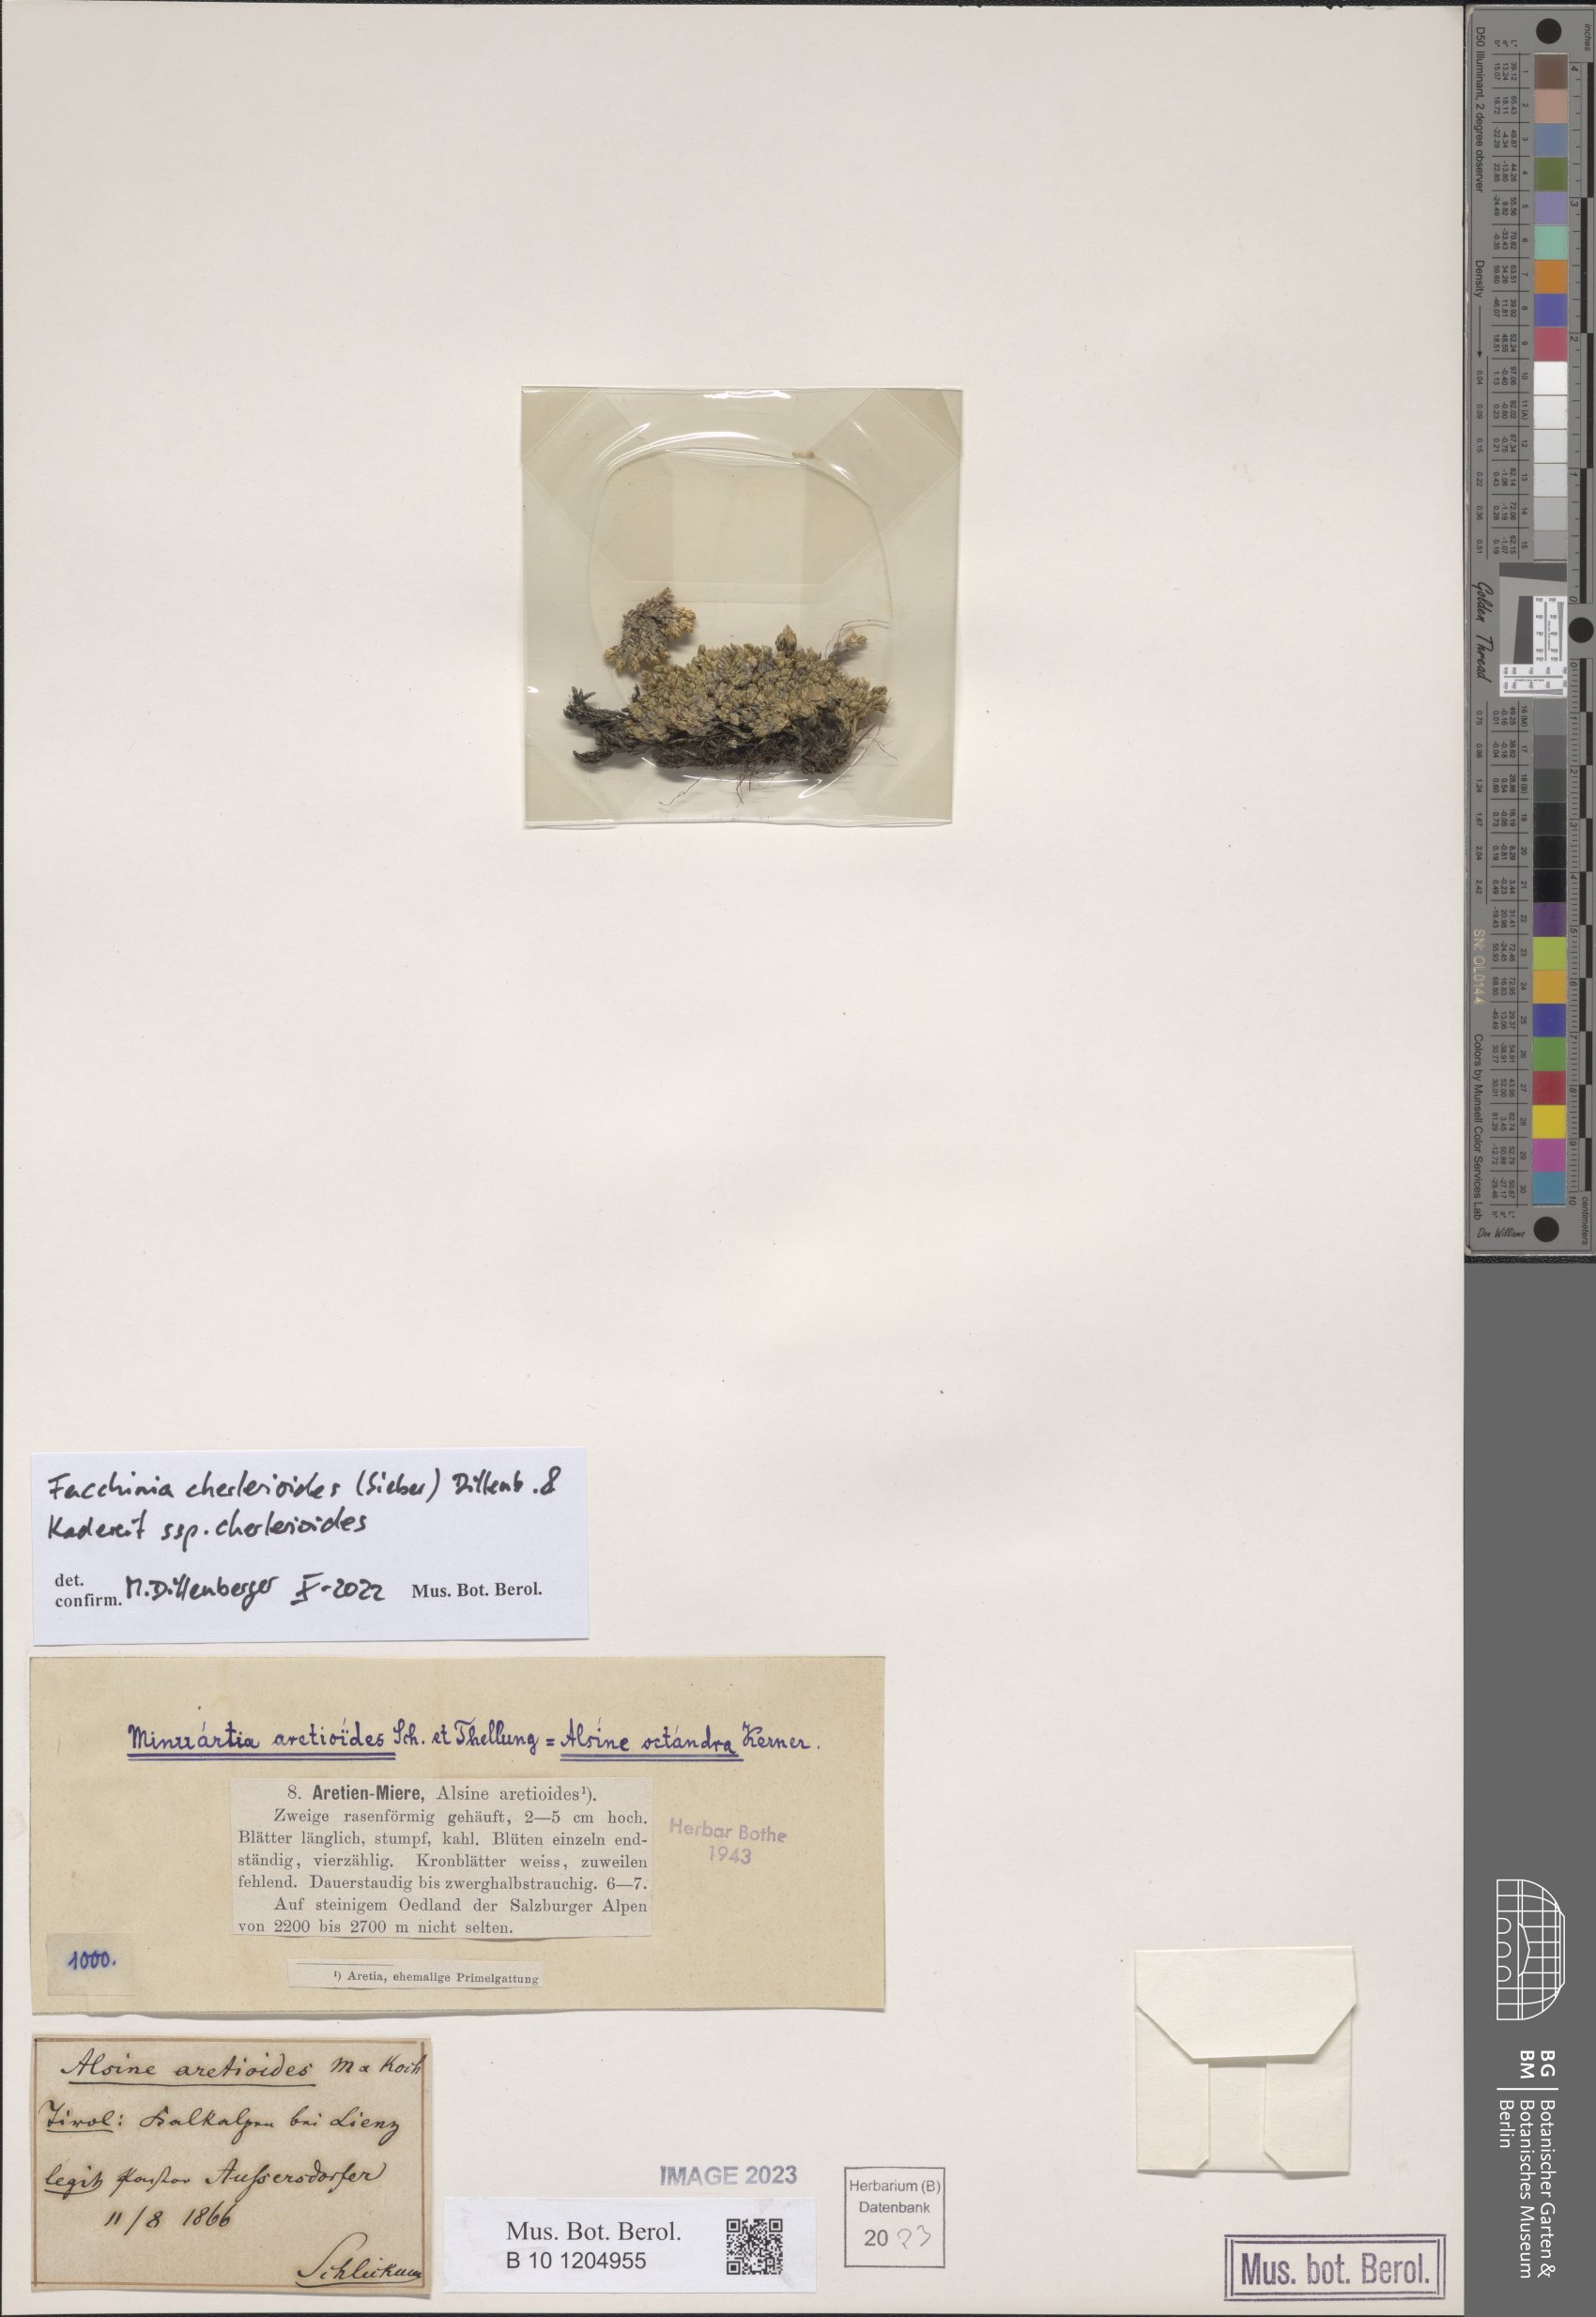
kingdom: Plantae
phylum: Tracheophyta
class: Magnoliopsida
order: Caryophyllales
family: Caryophyllaceae
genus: Facchinia
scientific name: Facchinia cherlerioides
